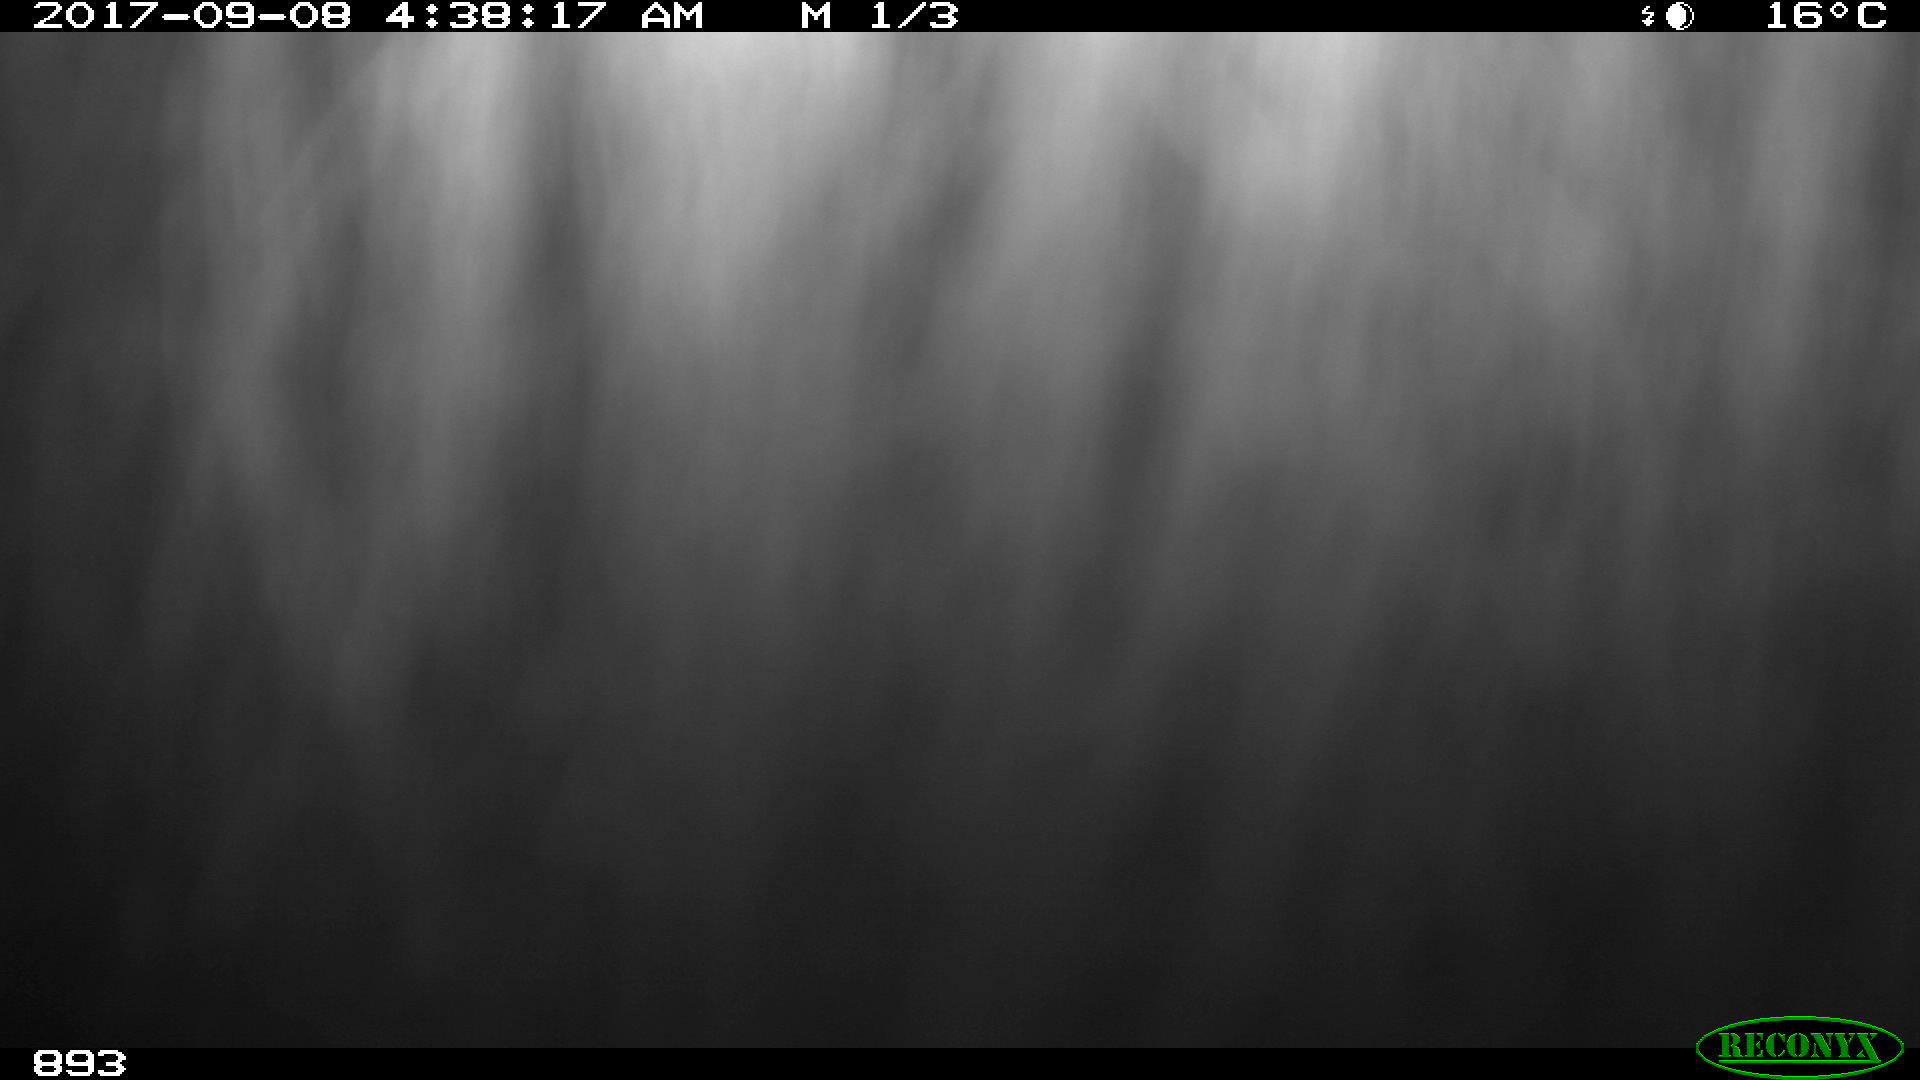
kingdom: Animalia
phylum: Chordata
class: Mammalia
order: Perissodactyla
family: Equidae
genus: Equus
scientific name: Equus caballus
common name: Horse
